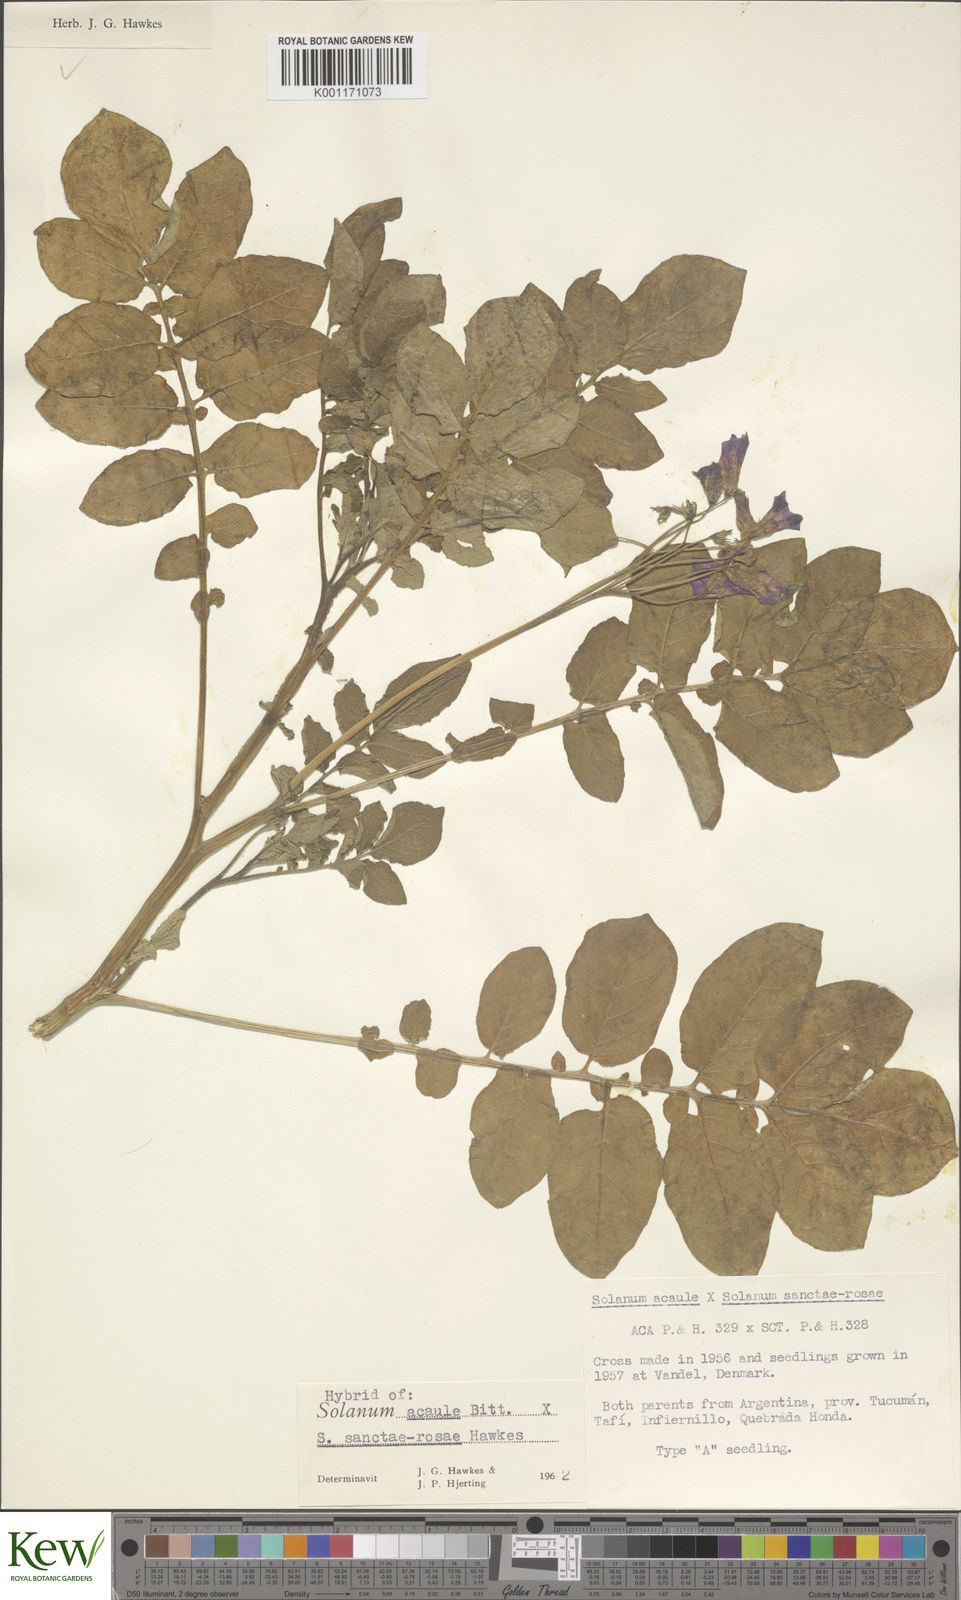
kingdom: Plantae
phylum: Tracheophyta
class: Magnoliopsida
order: Solanales
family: Solanaceae
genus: Solanum
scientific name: Solanum acaule
